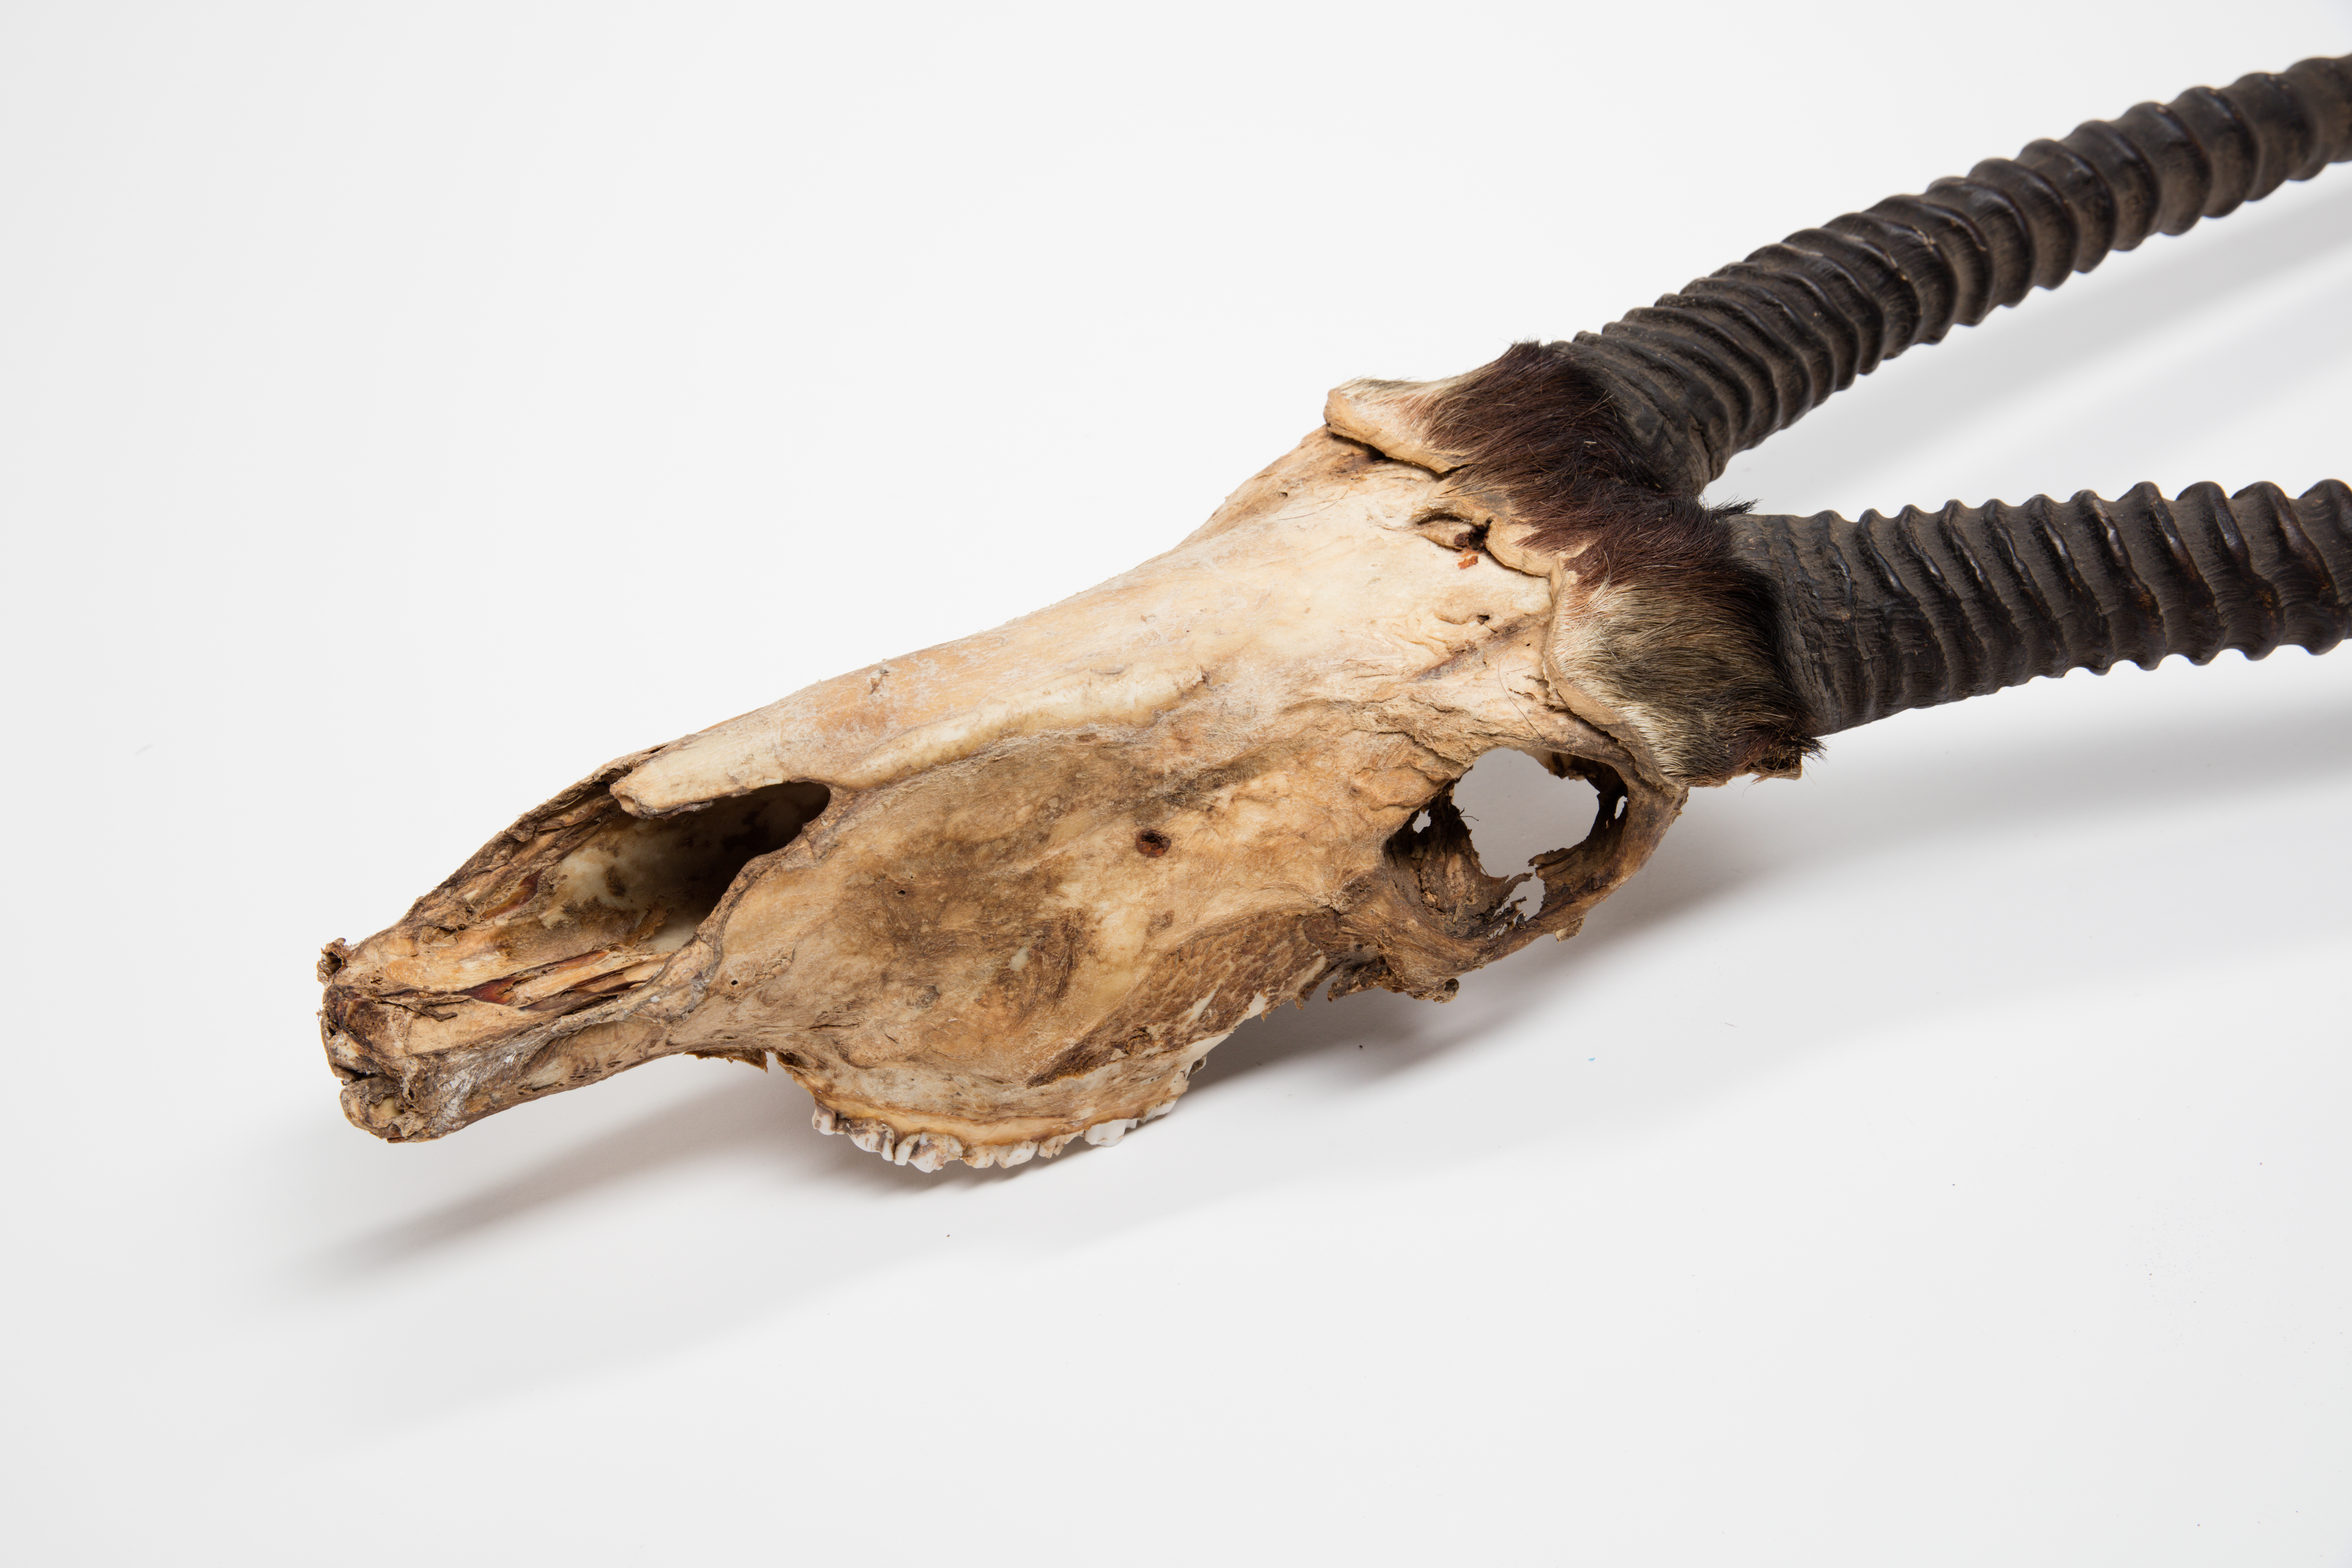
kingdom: Animalia
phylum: Chordata
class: Mammalia
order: Artiodactyla
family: Bovidae
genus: Oryx
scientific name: Oryx gazella
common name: Gemsbok
